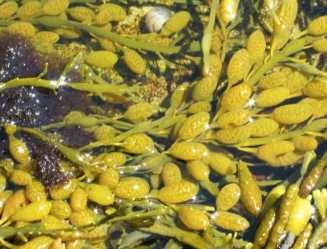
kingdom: Chromista
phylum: Ochrophyta
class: Phaeophyceae
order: Fucales
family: Fucaceae
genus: Ascophyllum
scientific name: Ascophyllum nodosum
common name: Rockweed
